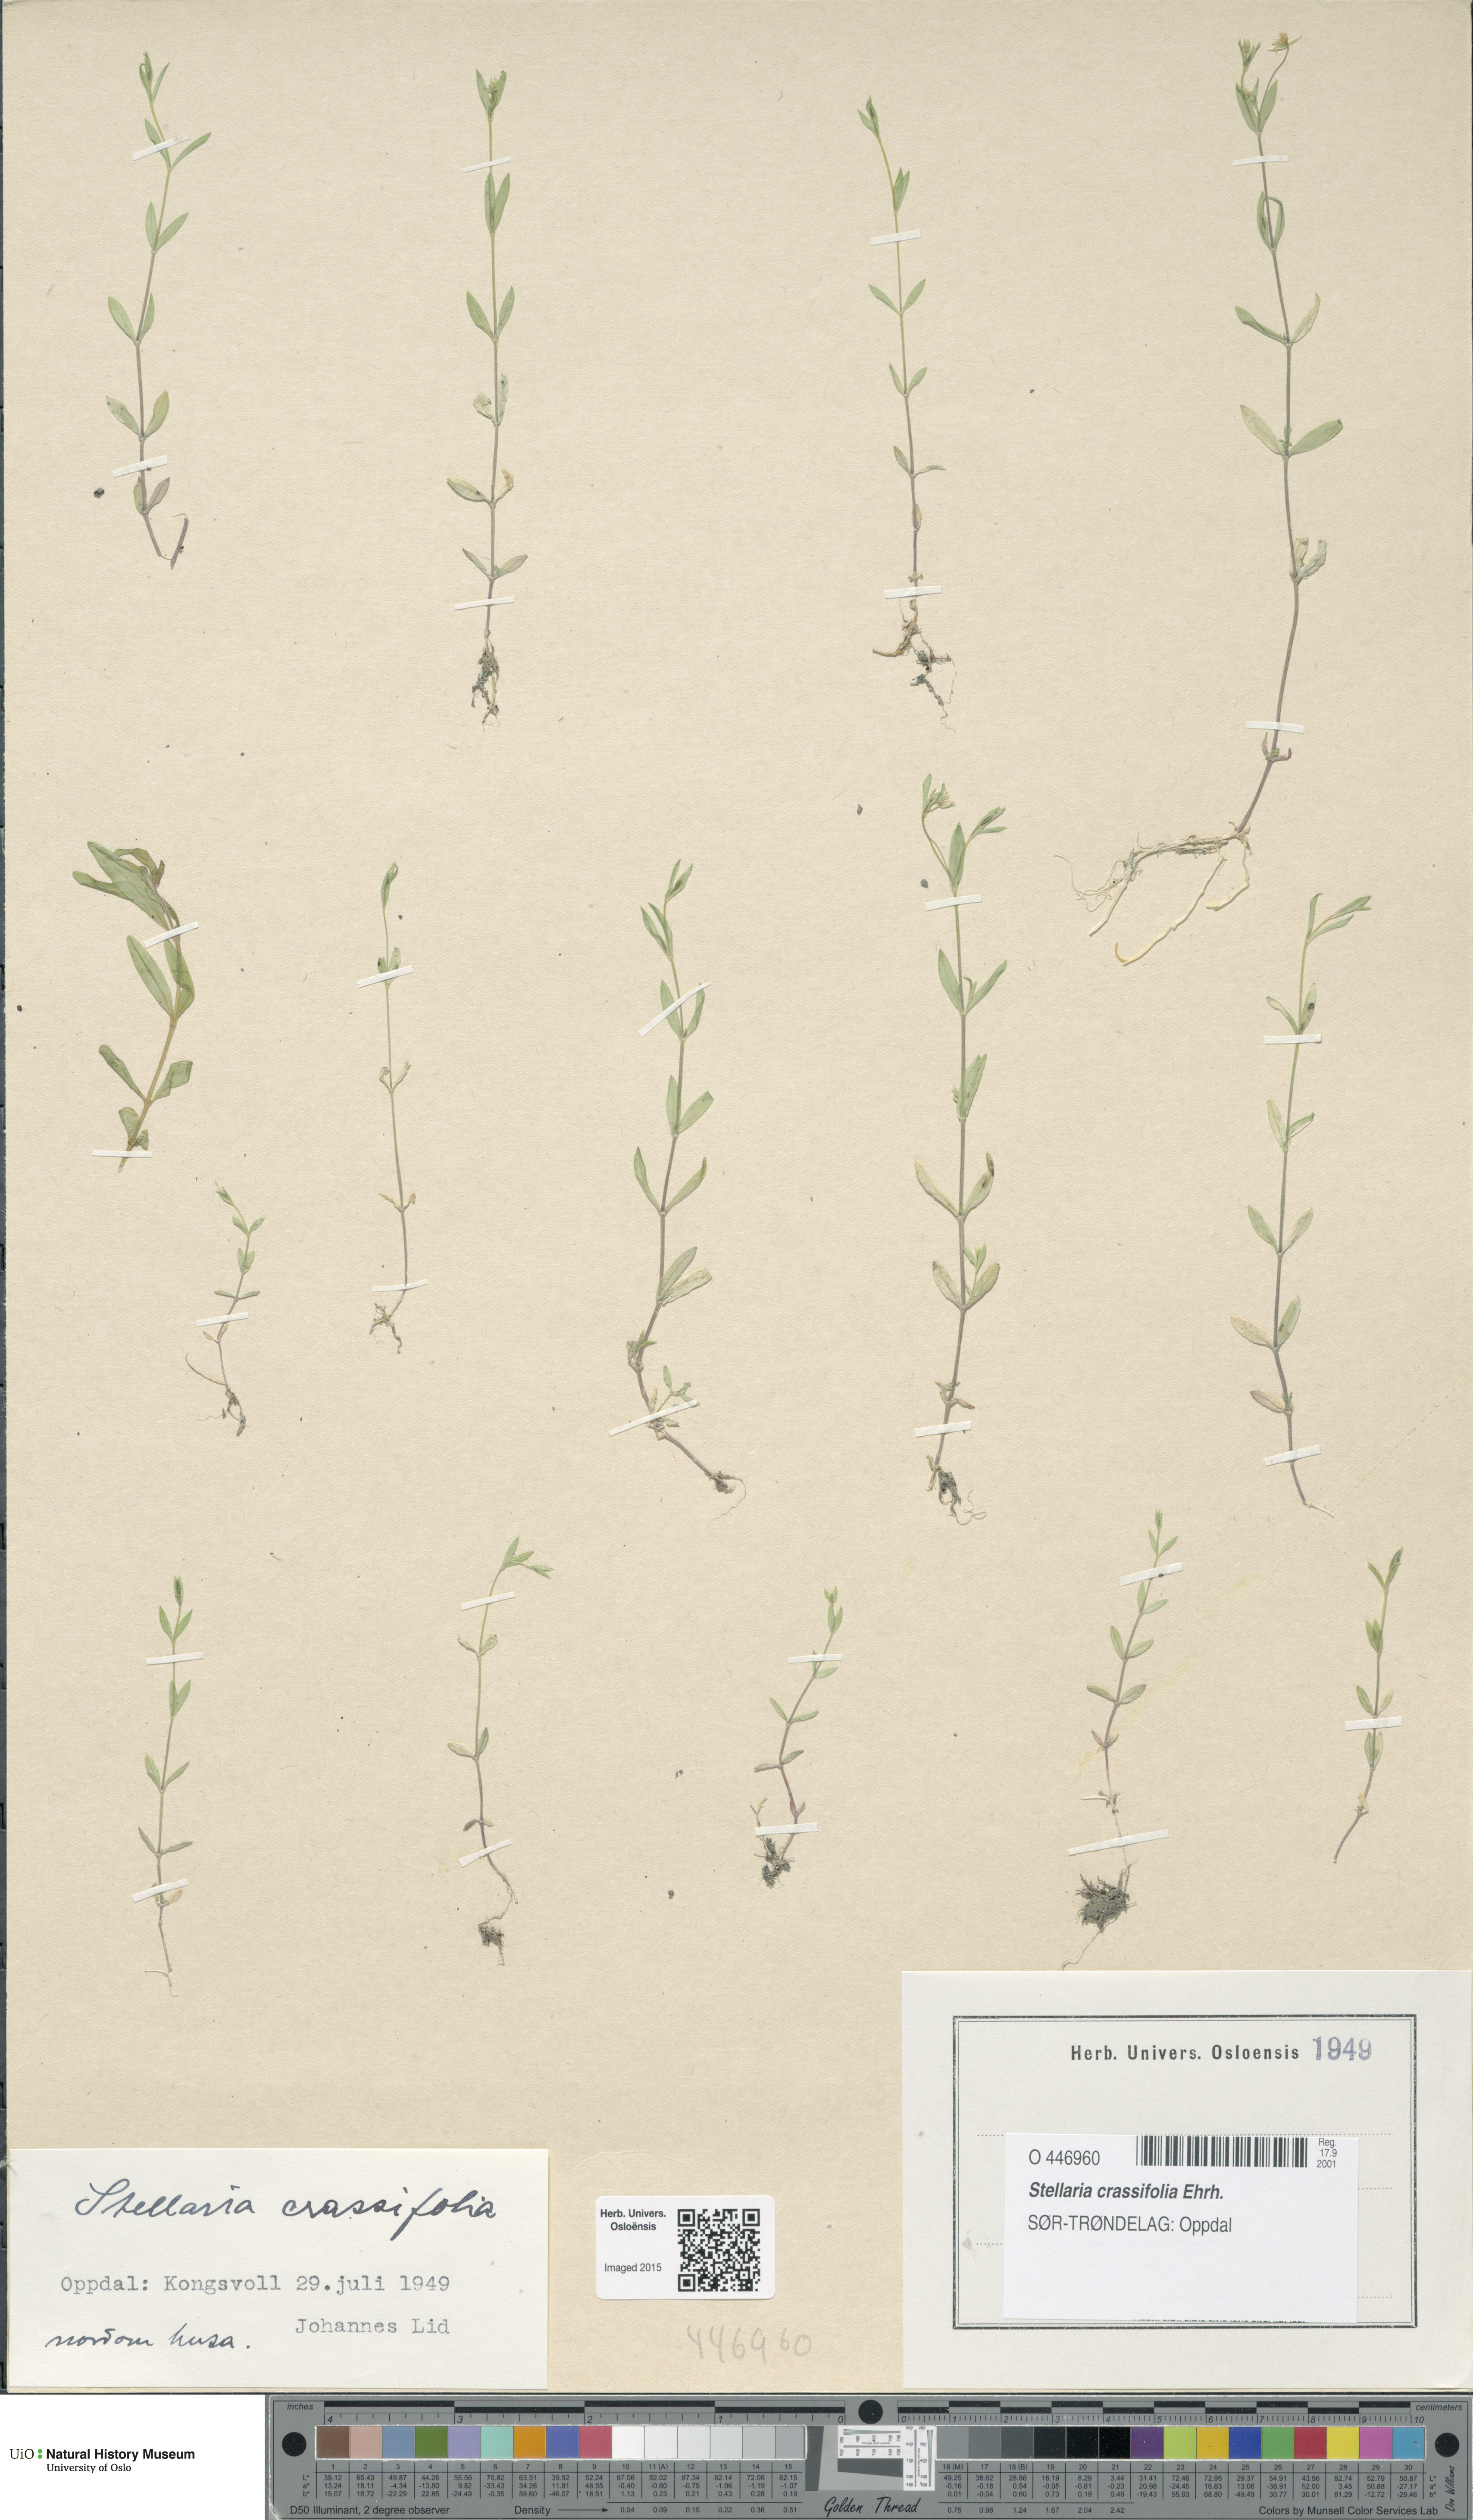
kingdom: Plantae
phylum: Tracheophyta
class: Magnoliopsida
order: Caryophyllales
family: Caryophyllaceae
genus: Stellaria
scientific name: Stellaria crassifolia
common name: Fleshy starwort
